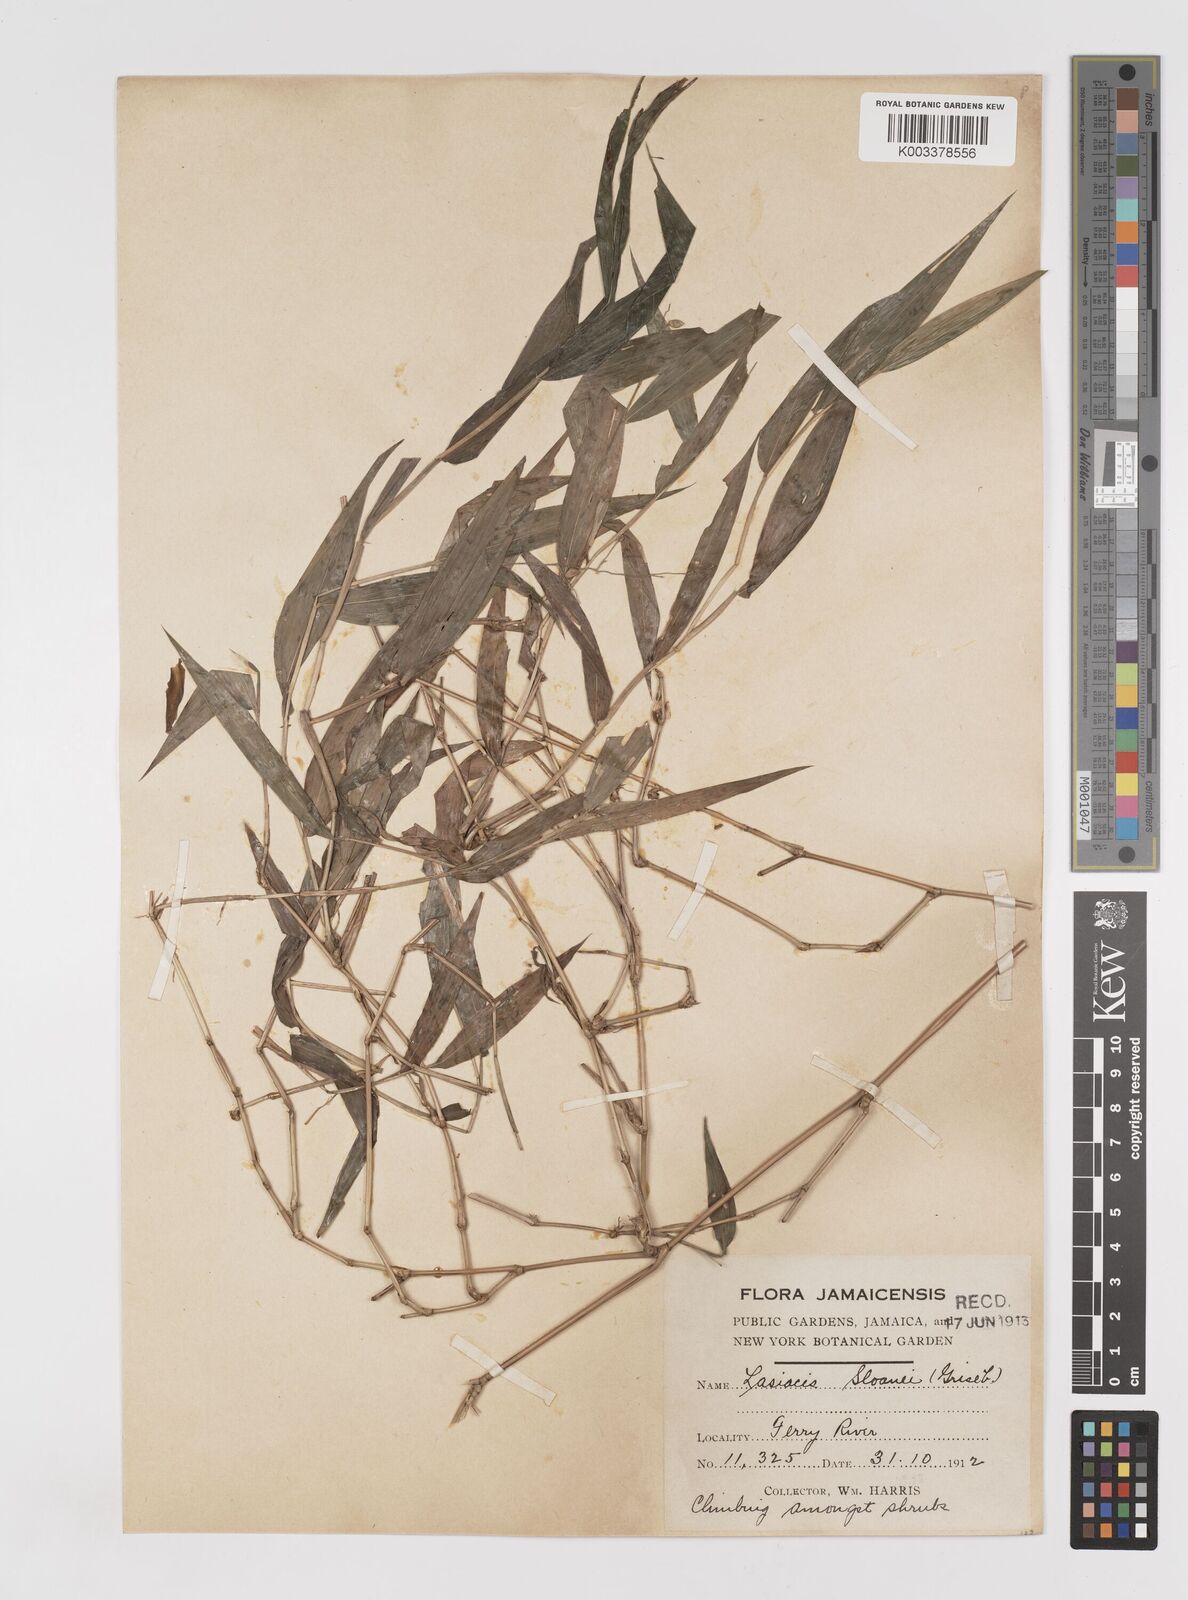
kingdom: Plantae
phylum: Tracheophyta
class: Liliopsida
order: Poales
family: Poaceae
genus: Lasiacis
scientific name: Lasiacis sloanei
